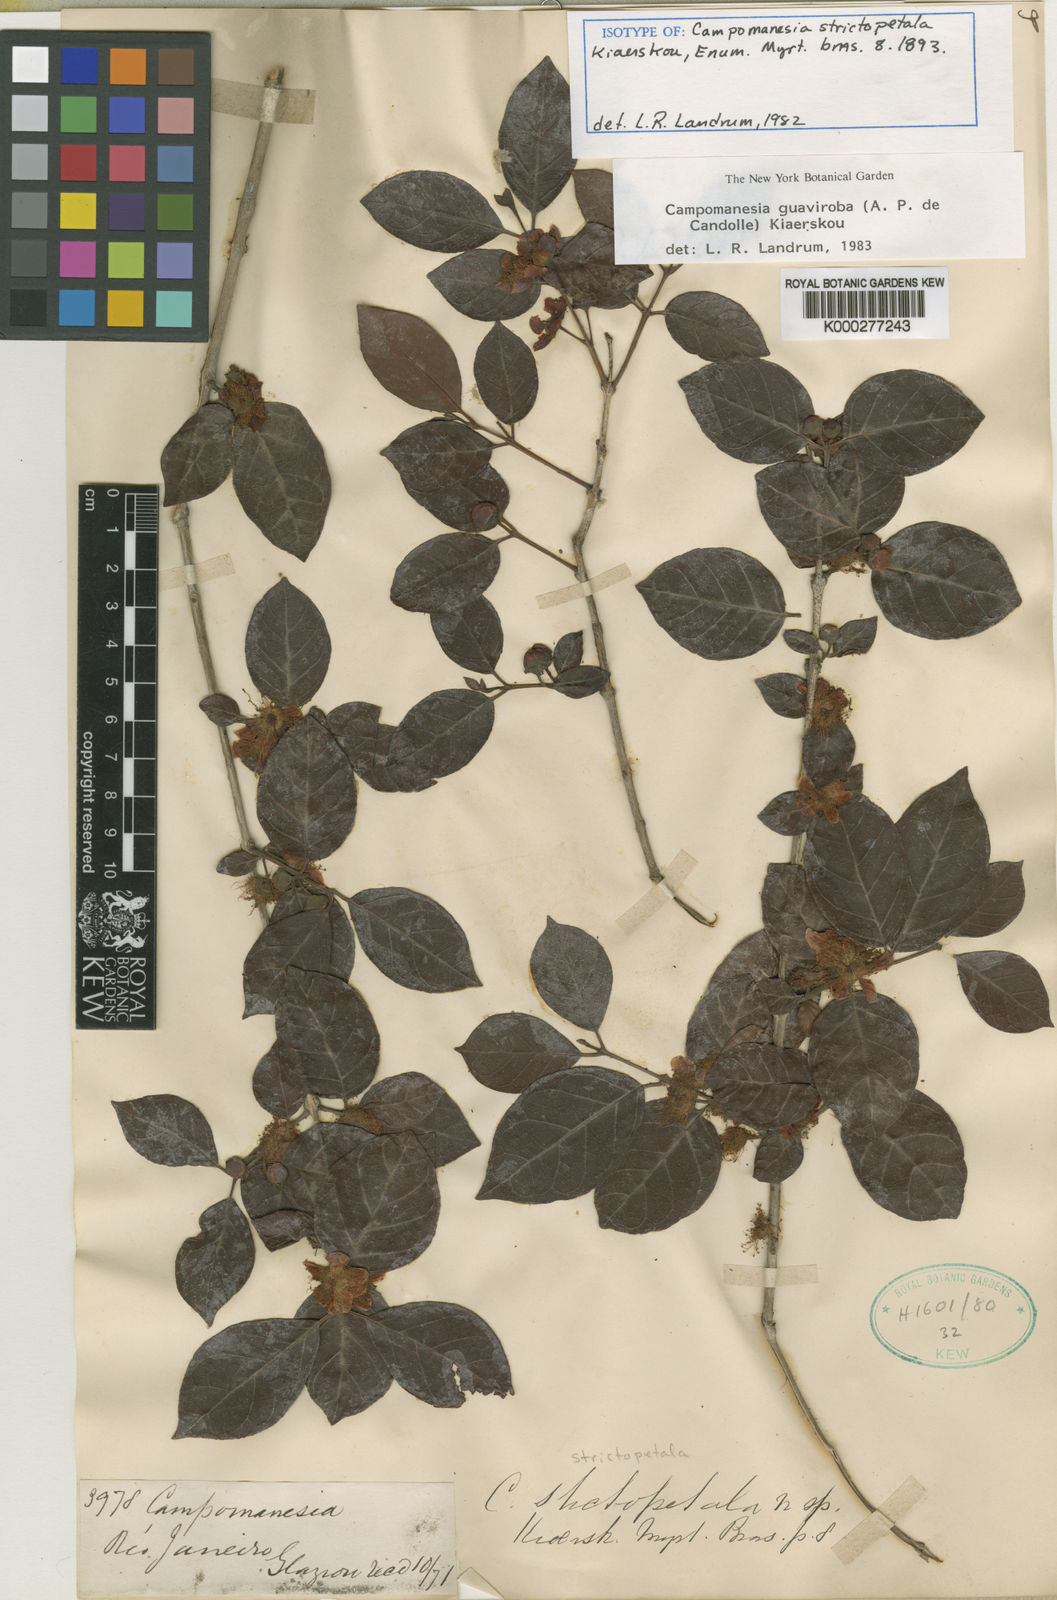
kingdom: Plantae
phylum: Tracheophyta
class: Magnoliopsida
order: Myrtales
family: Myrtaceae
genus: Campomanesia
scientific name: Campomanesia
